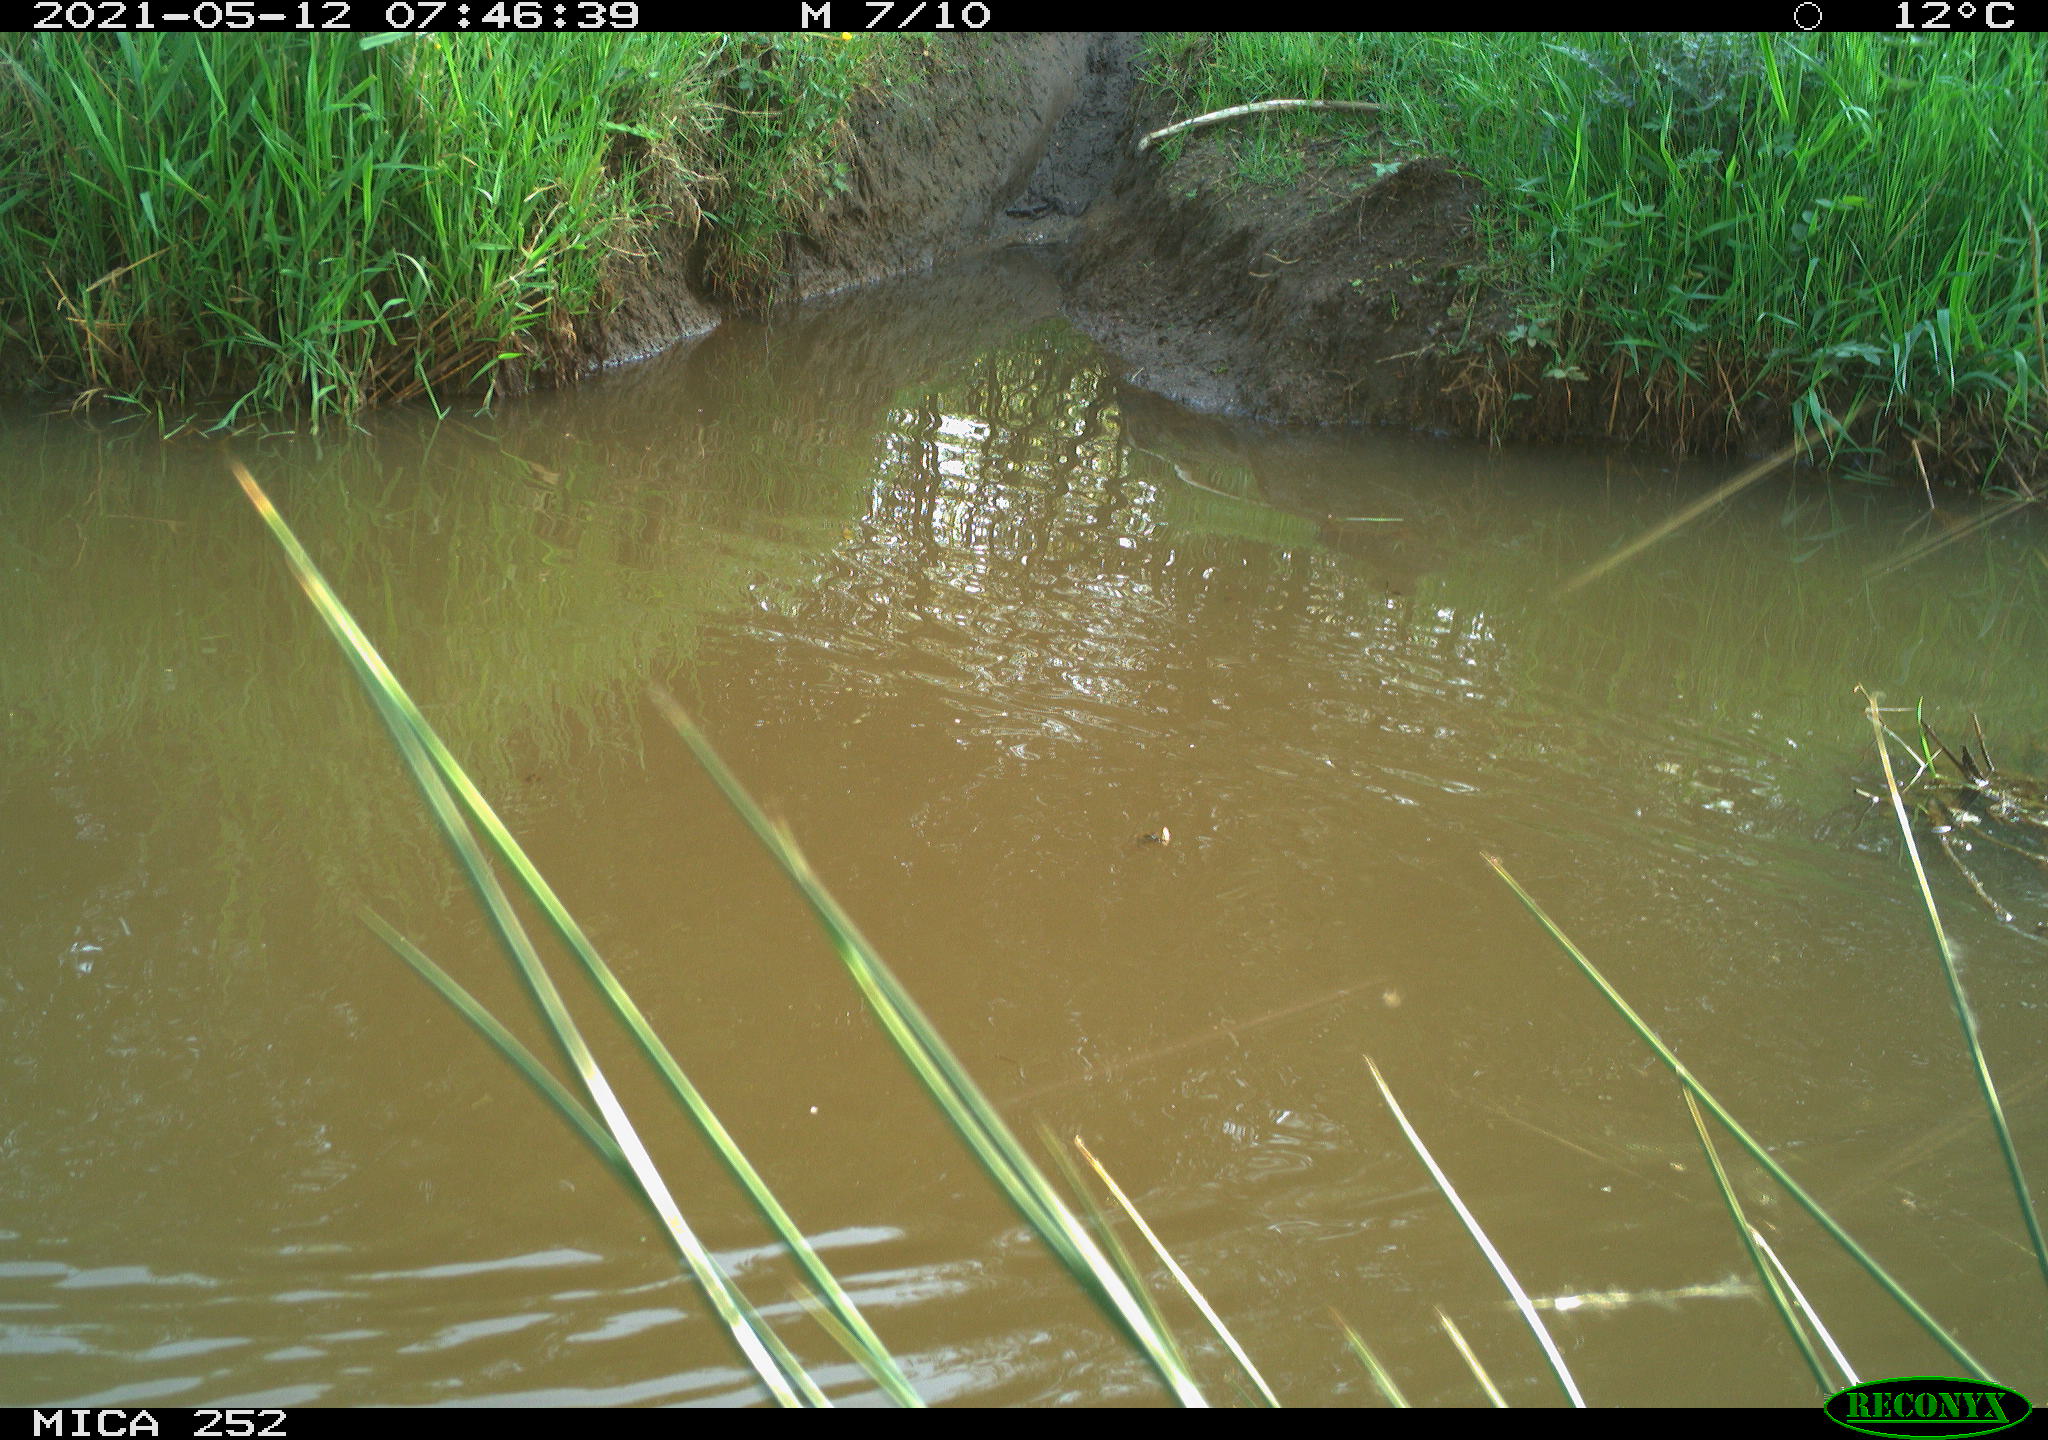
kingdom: Animalia
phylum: Chordata
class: Aves
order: Anseriformes
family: Anatidae
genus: Anas
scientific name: Anas
